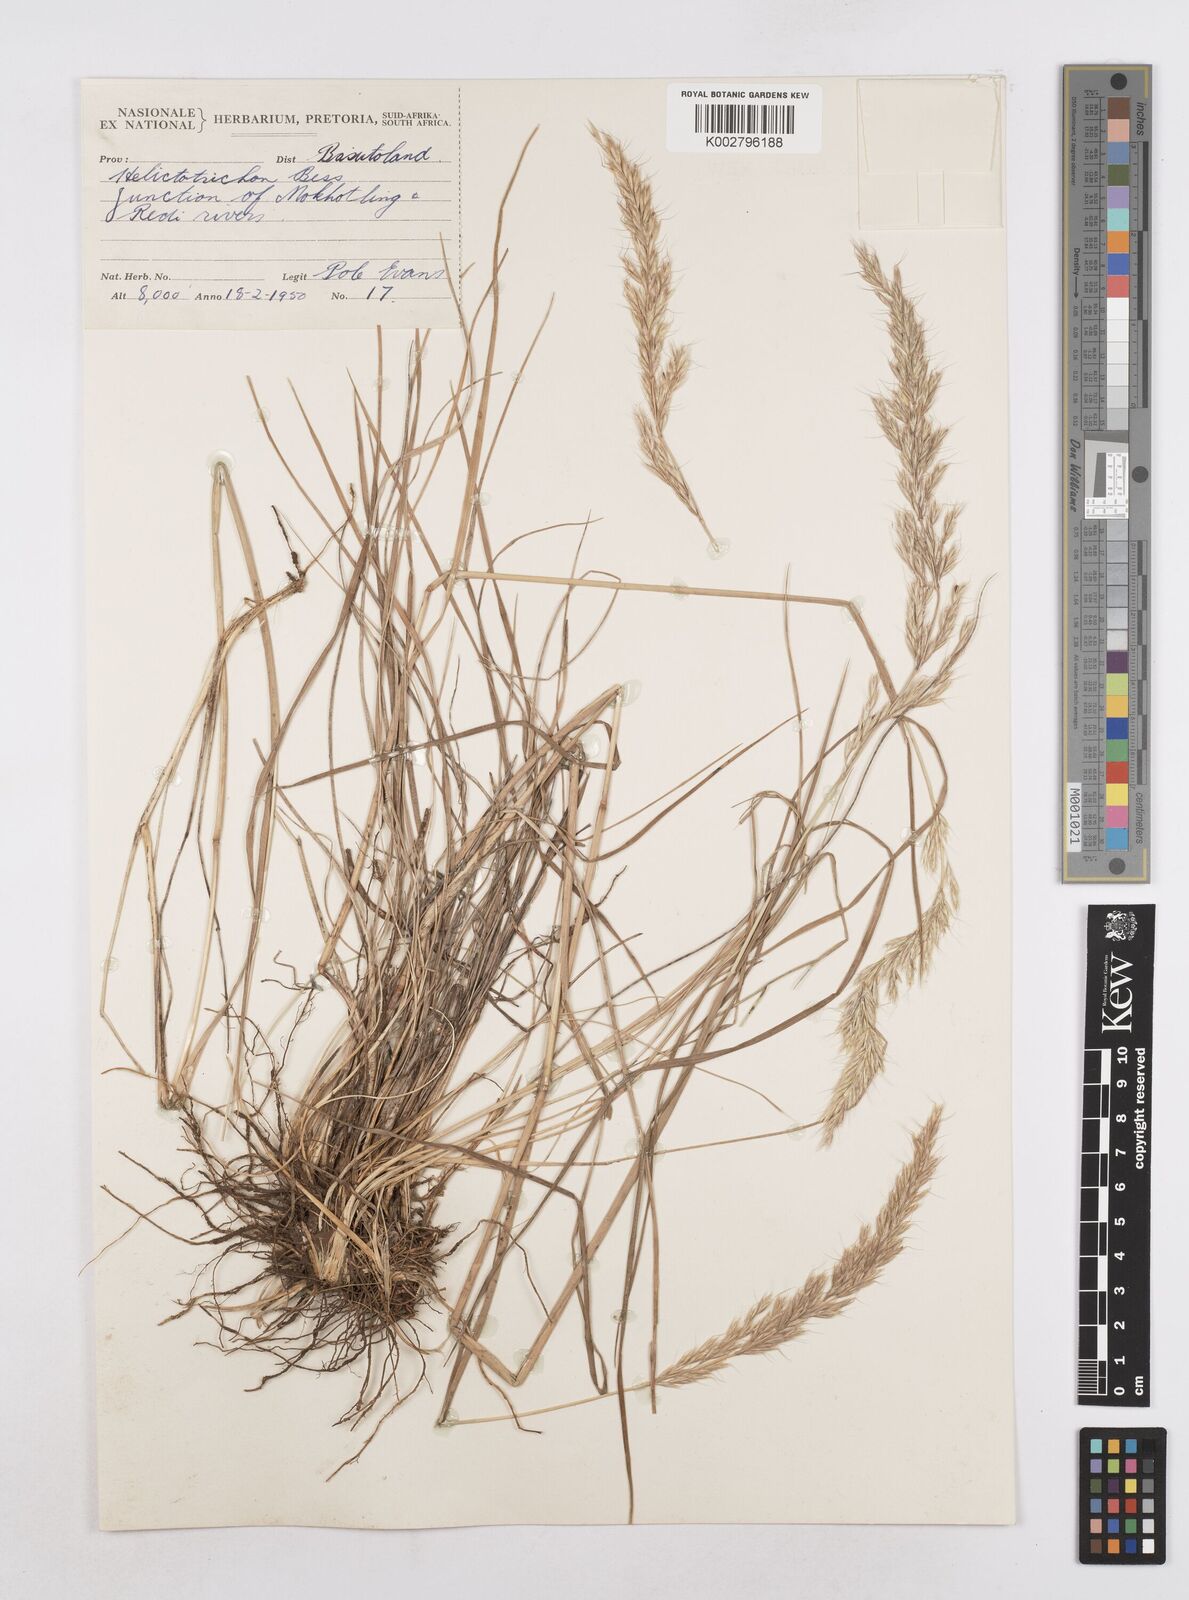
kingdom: Plantae
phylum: Tracheophyta
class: Liliopsida
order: Poales
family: Poaceae
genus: Helictotrichon
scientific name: Helictotrichon
